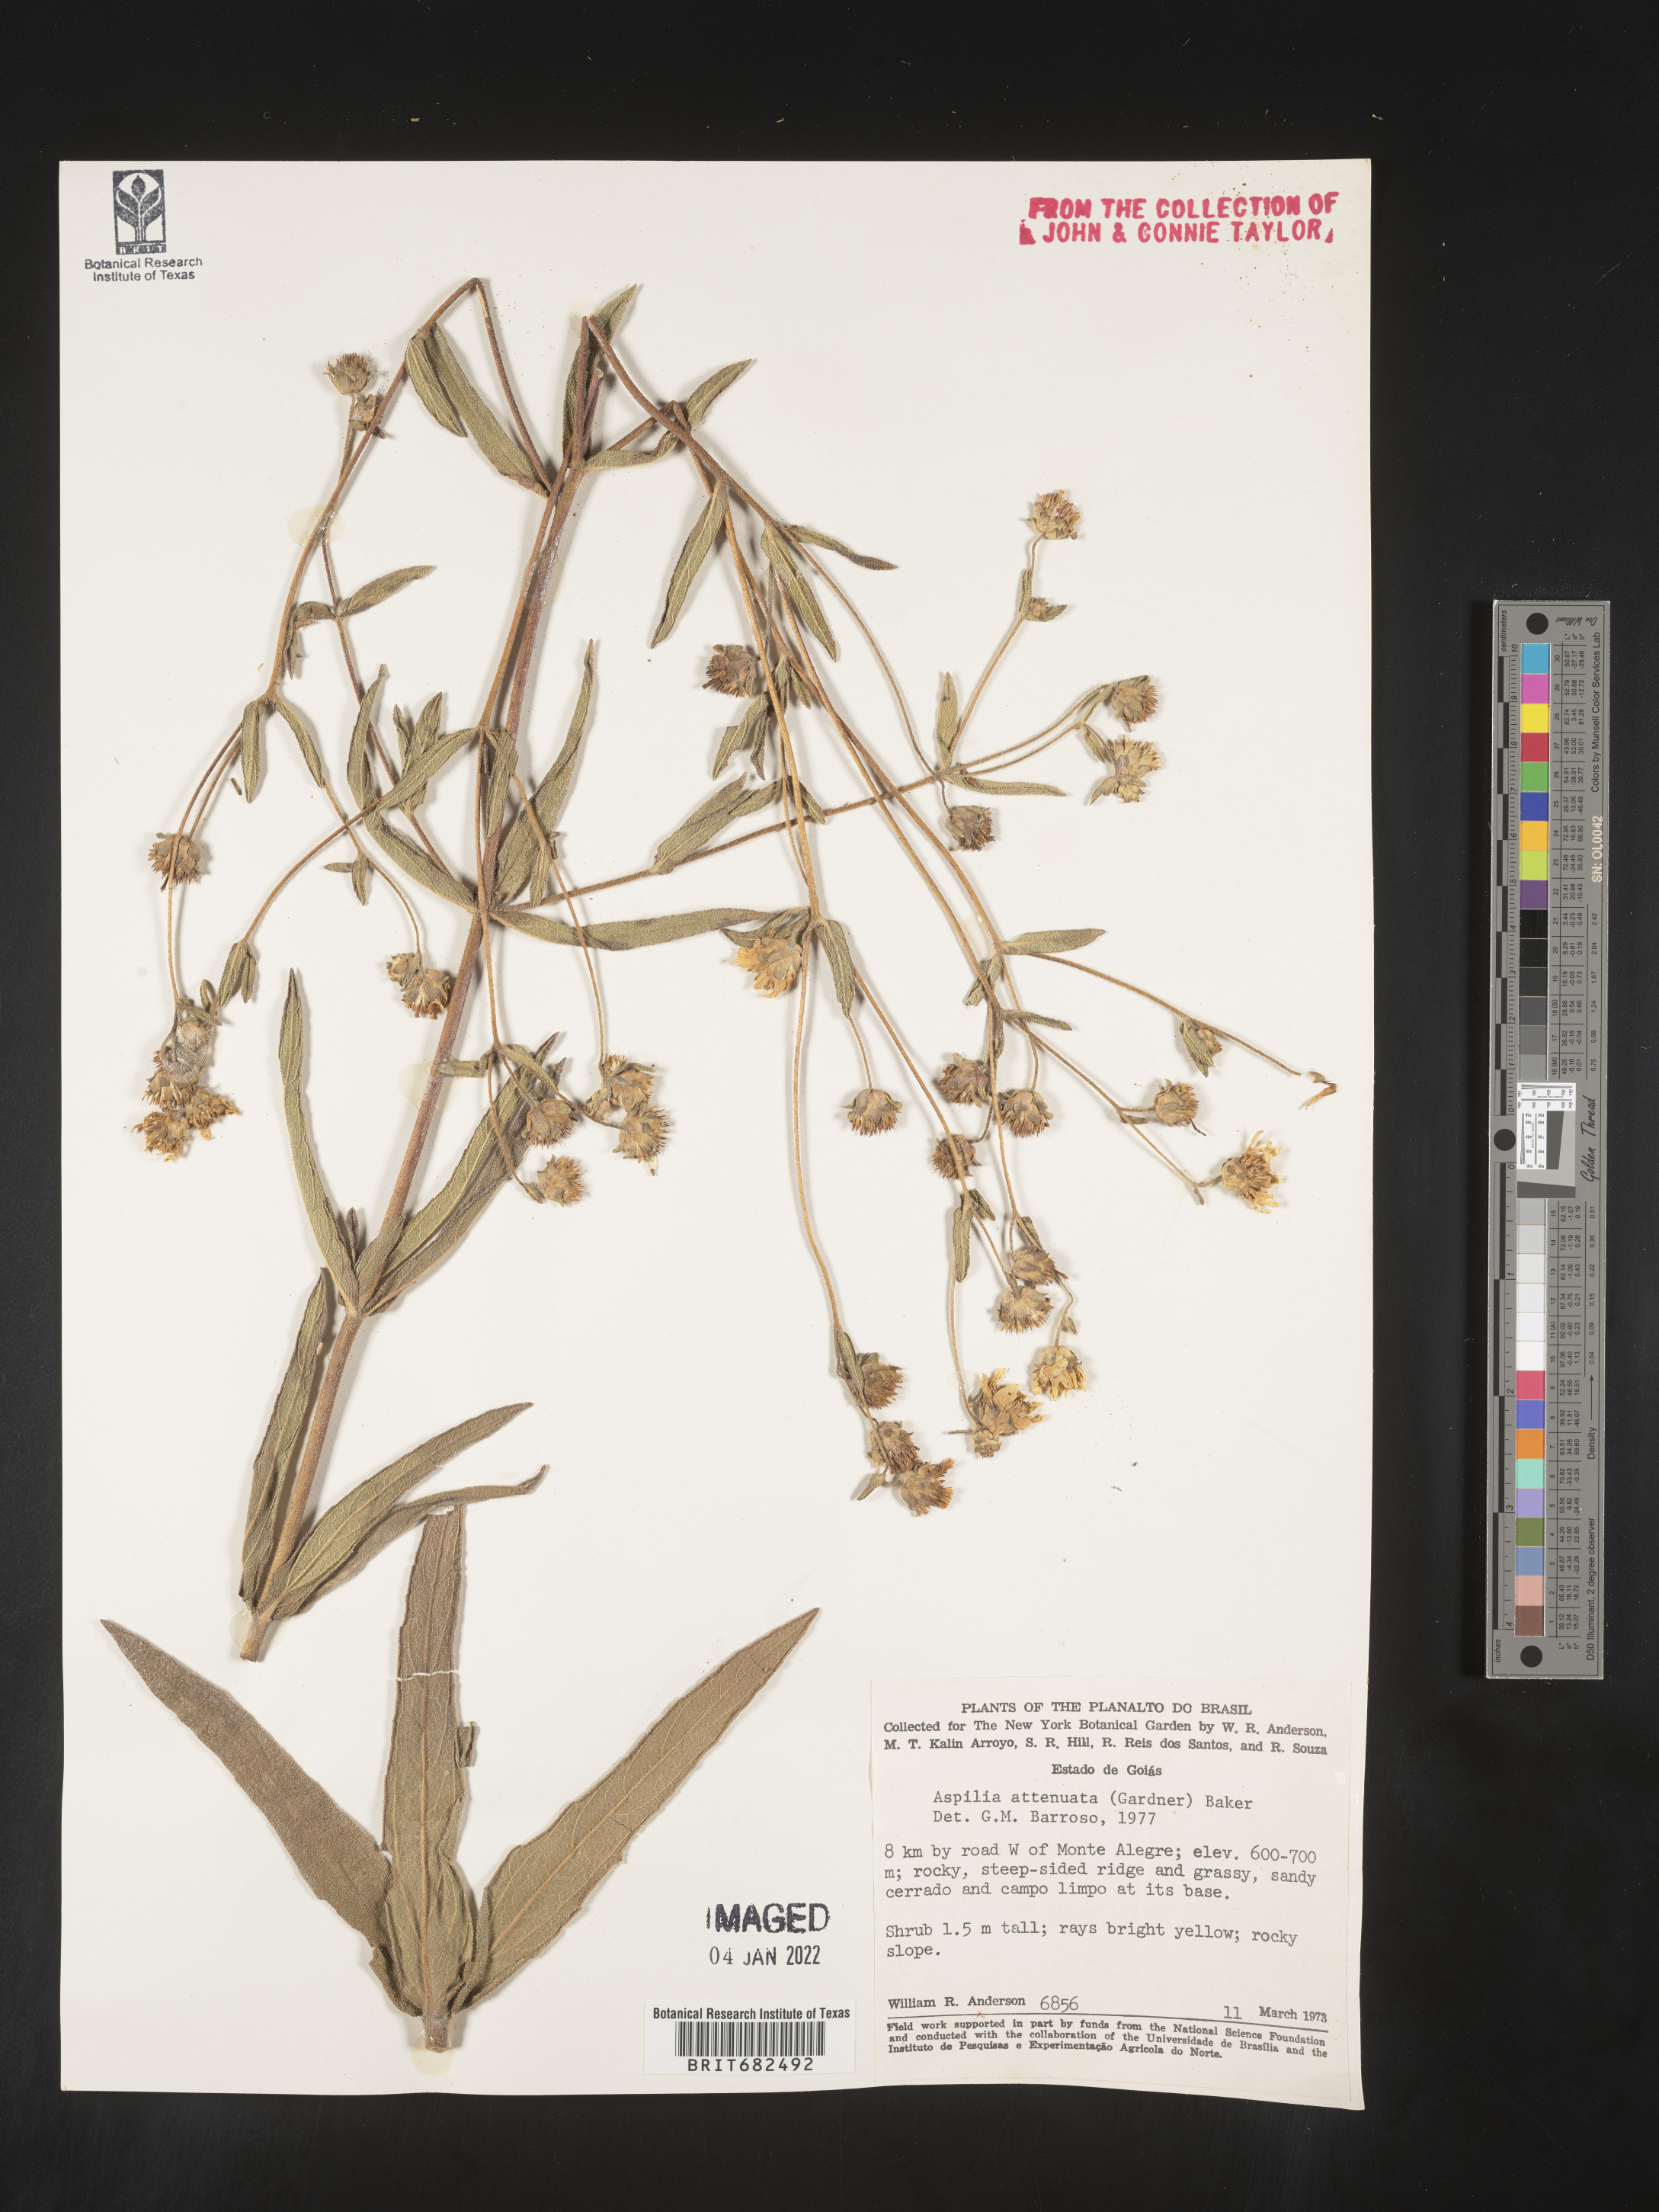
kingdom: Plantae
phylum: Tracheophyta
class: Magnoliopsida
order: Asterales
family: Asteraceae
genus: Aspilia
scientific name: Aspilia
